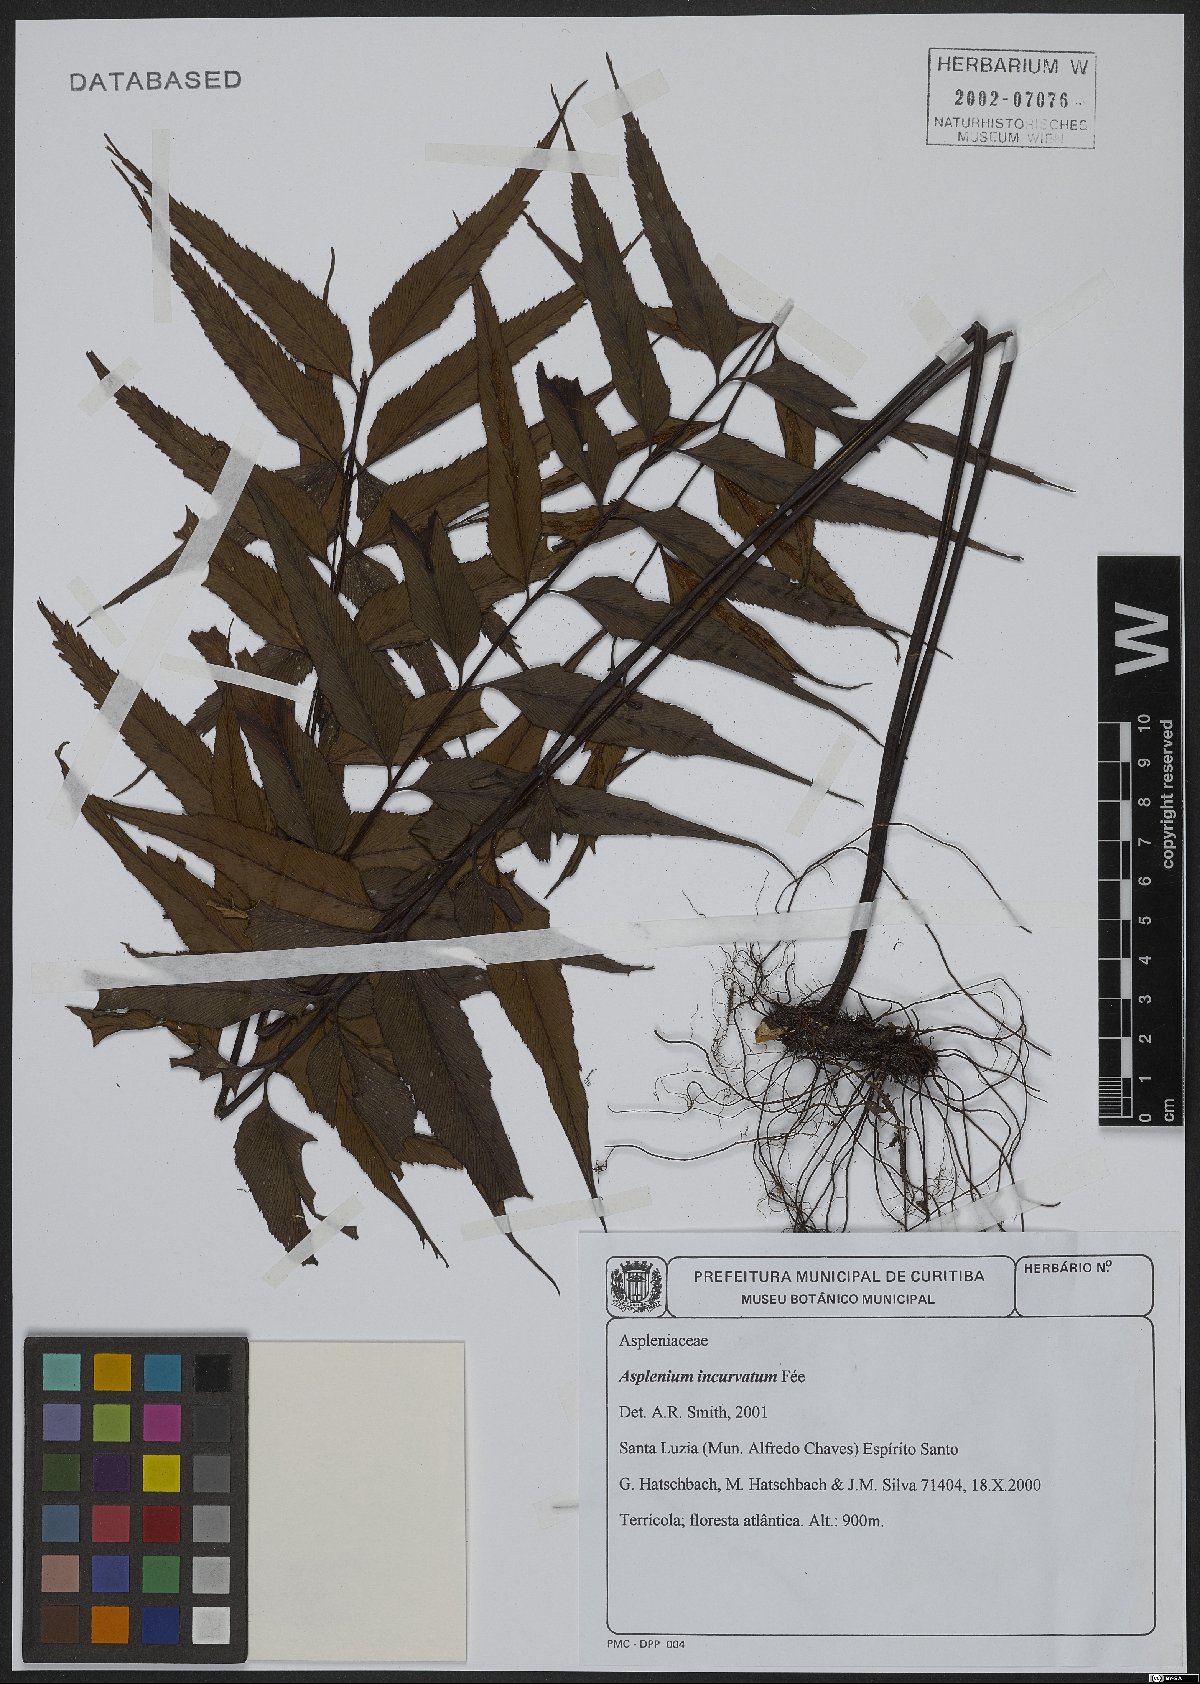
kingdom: Plantae
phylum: Tracheophyta
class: Polypodiopsida
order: Polypodiales
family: Aspleniaceae
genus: Asplenium
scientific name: Asplenium serra
